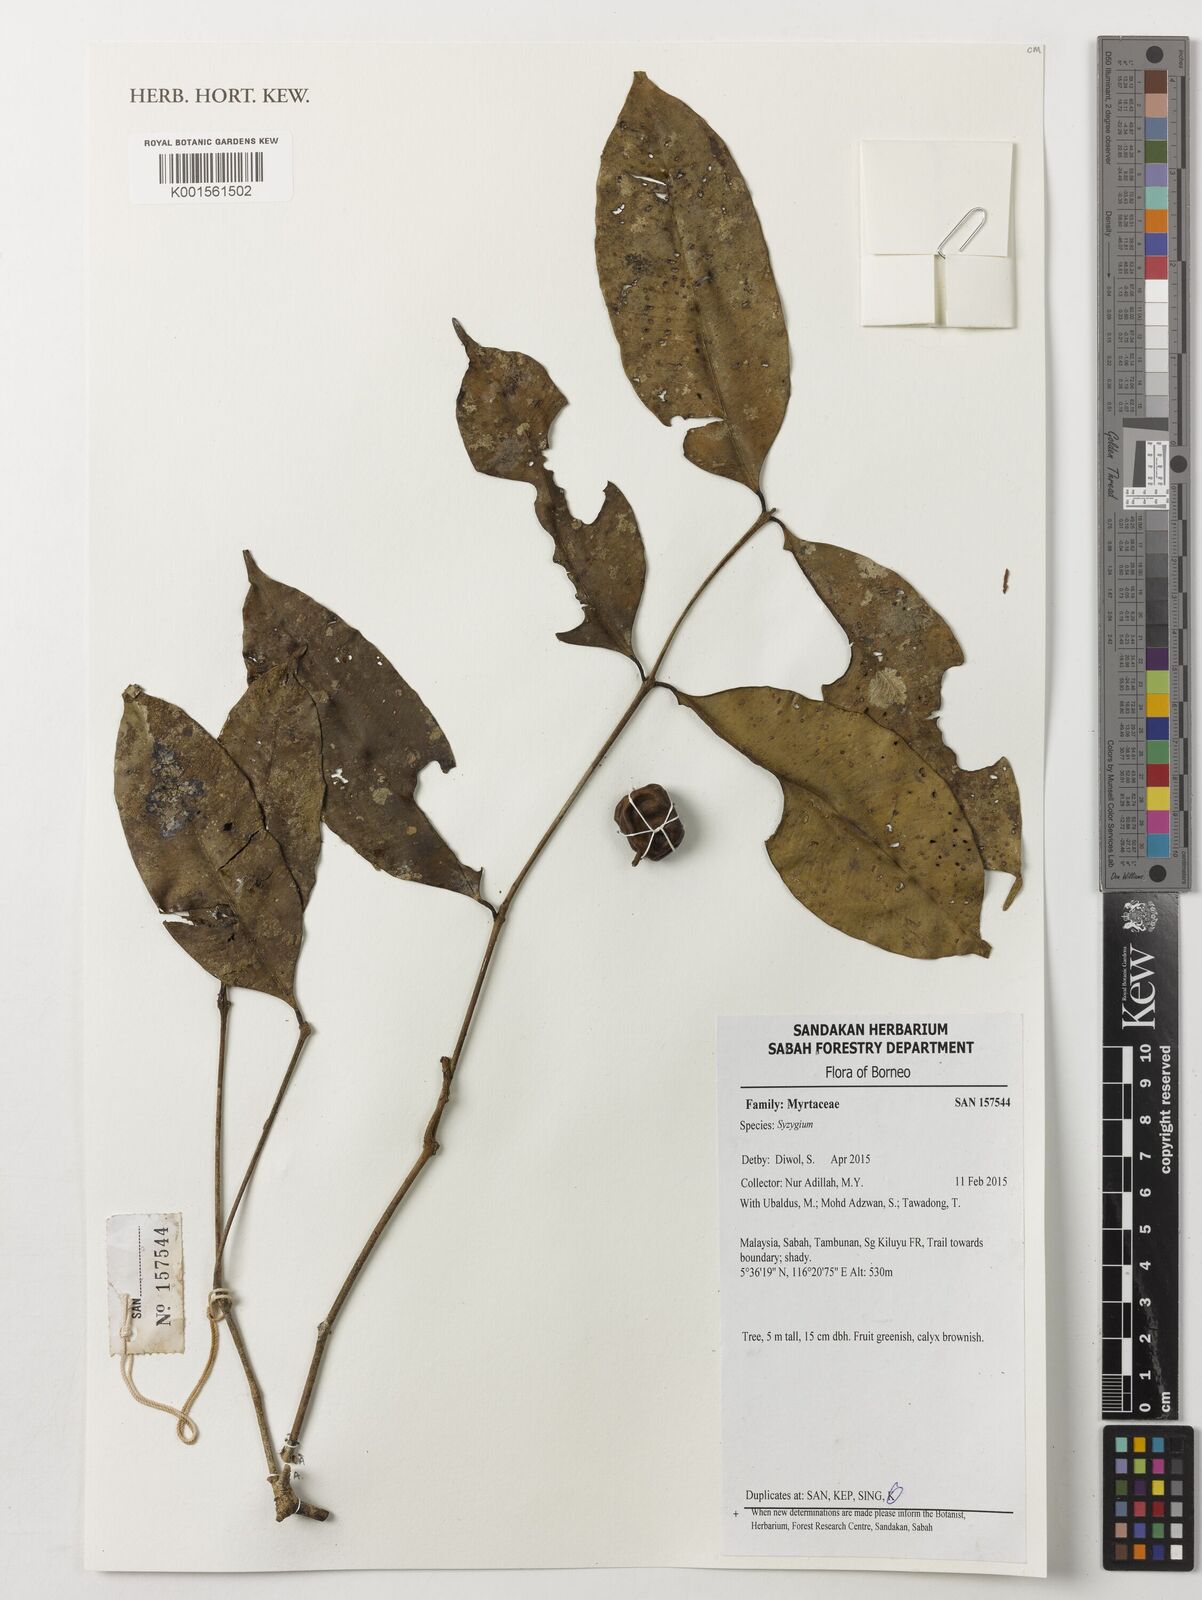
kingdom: Plantae
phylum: Tracheophyta
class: Magnoliopsida
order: Myrtales
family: Myrtaceae
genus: Syzygium
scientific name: Syzygium
